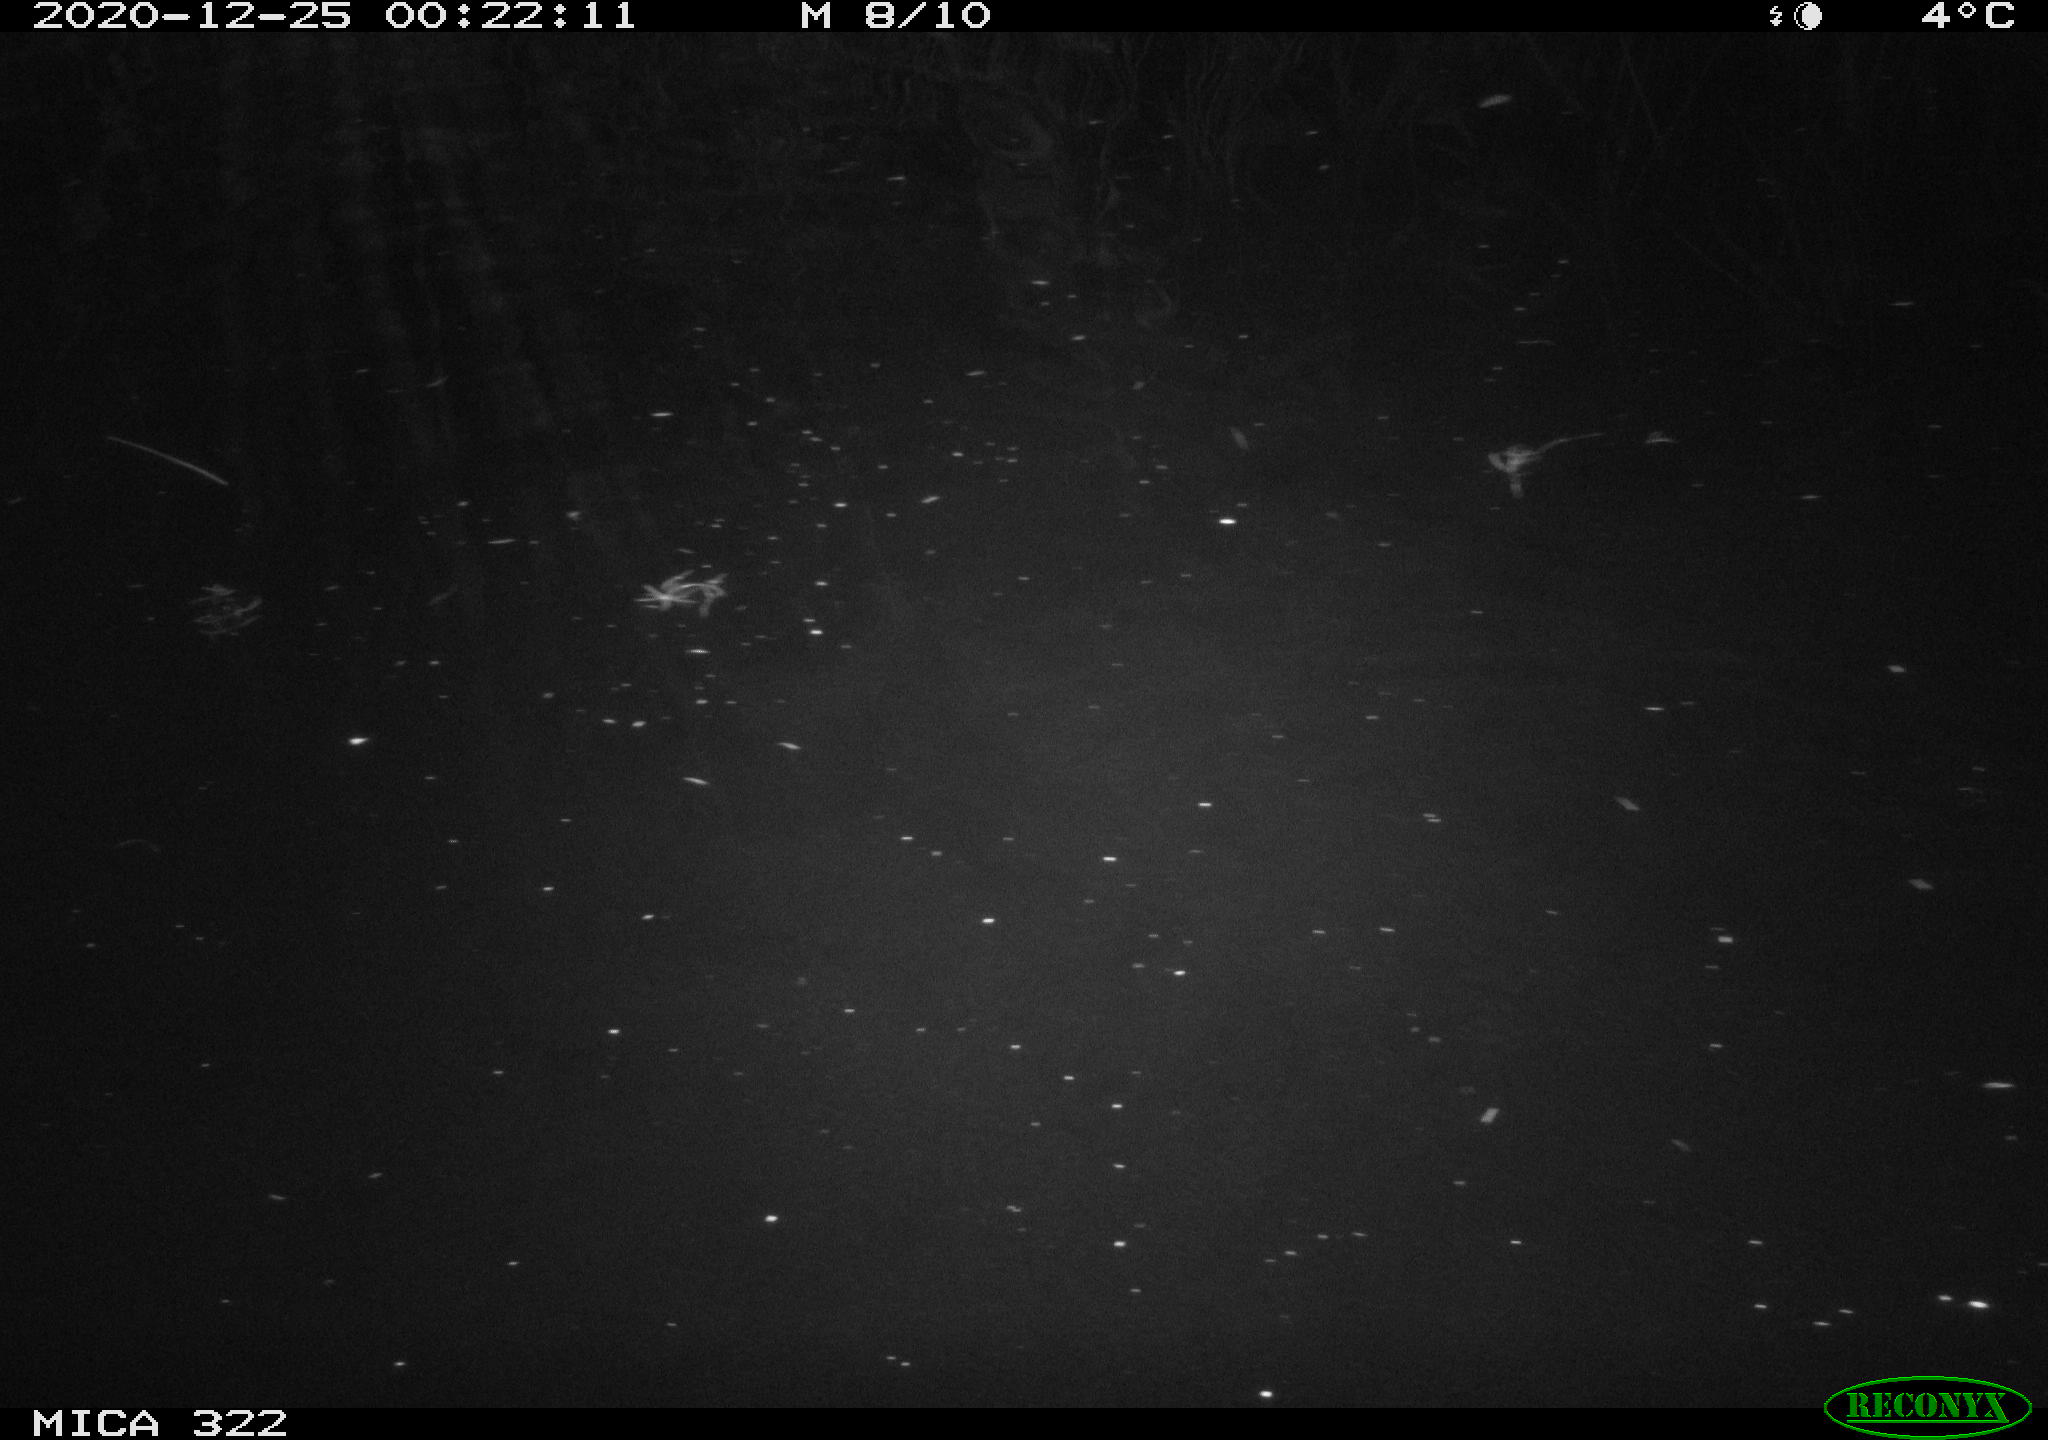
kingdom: Animalia
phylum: Chordata
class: Mammalia
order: Rodentia
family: Muridae
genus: Rattus
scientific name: Rattus norvegicus
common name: Brown rat
